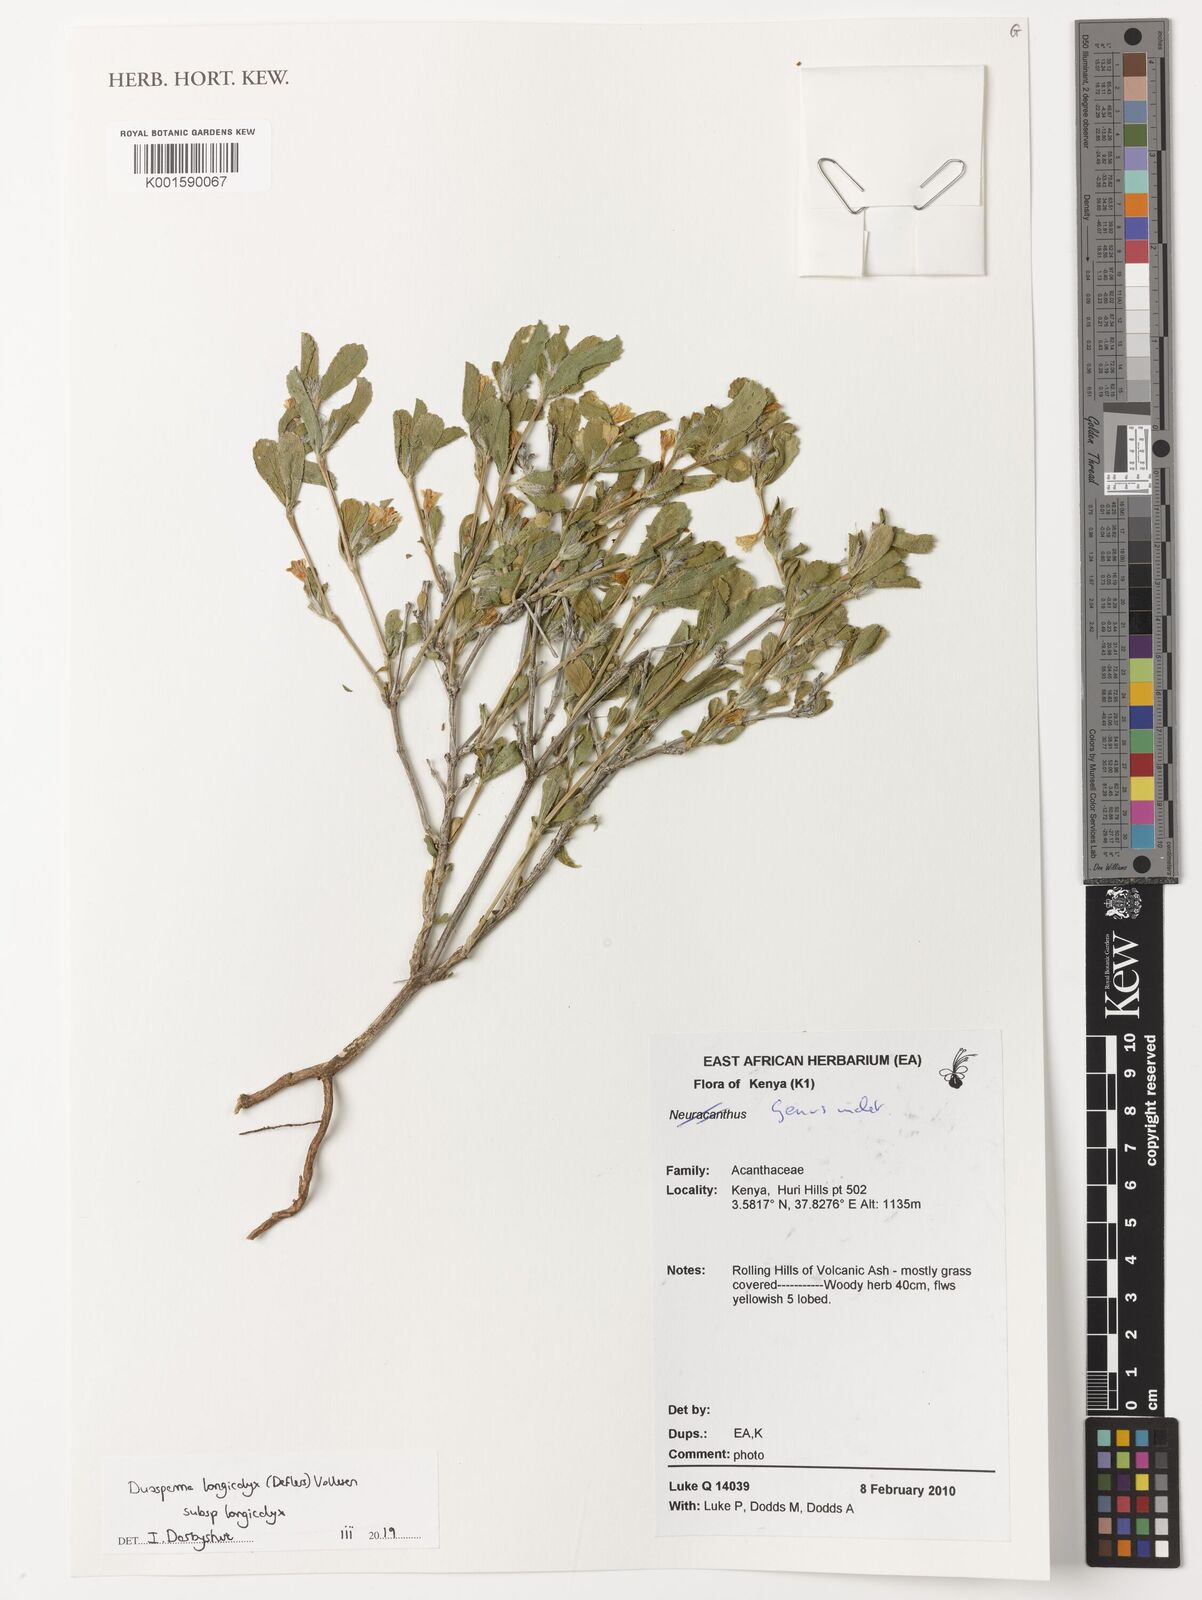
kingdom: Plantae
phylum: Tracheophyta
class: Magnoliopsida
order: Lamiales
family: Acanthaceae
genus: Duosperma
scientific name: Duosperma longicalyx
